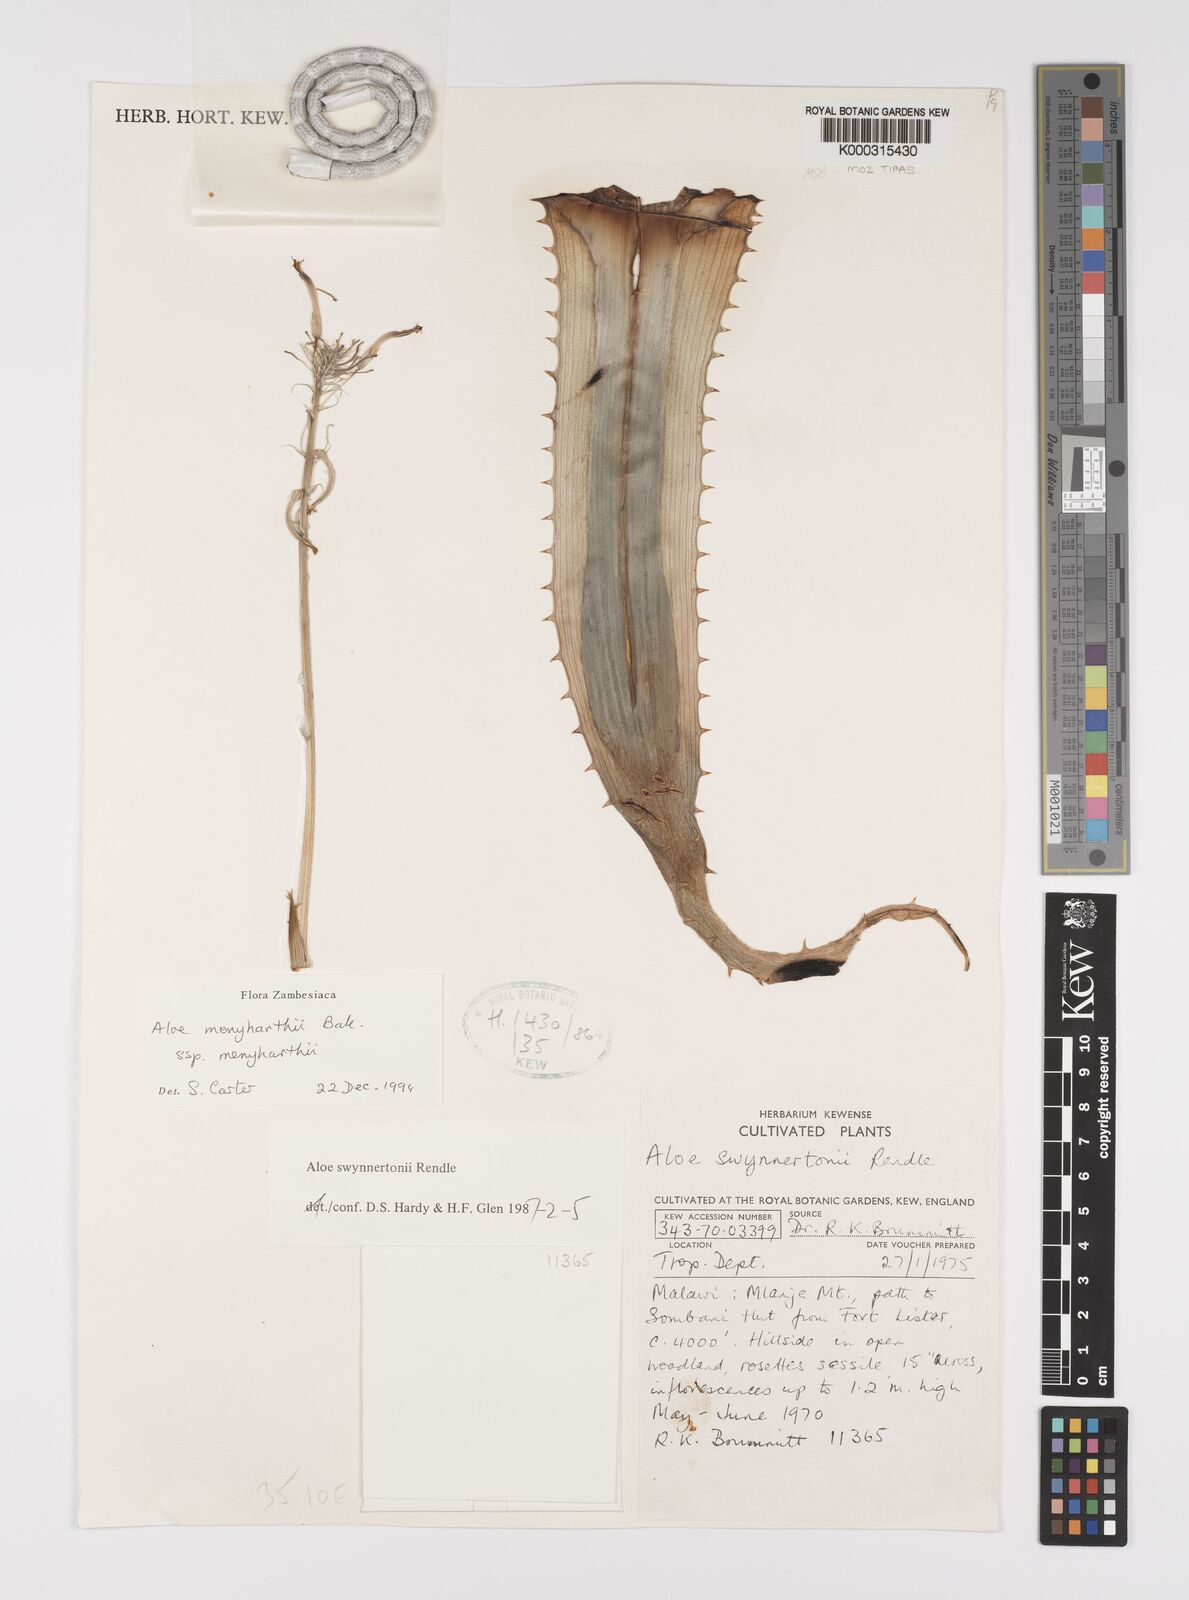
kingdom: Plantae
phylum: Tracheophyta
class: Liliopsida
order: Asparagales
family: Asphodelaceae
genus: Aloe
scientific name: Aloe menyharthii
